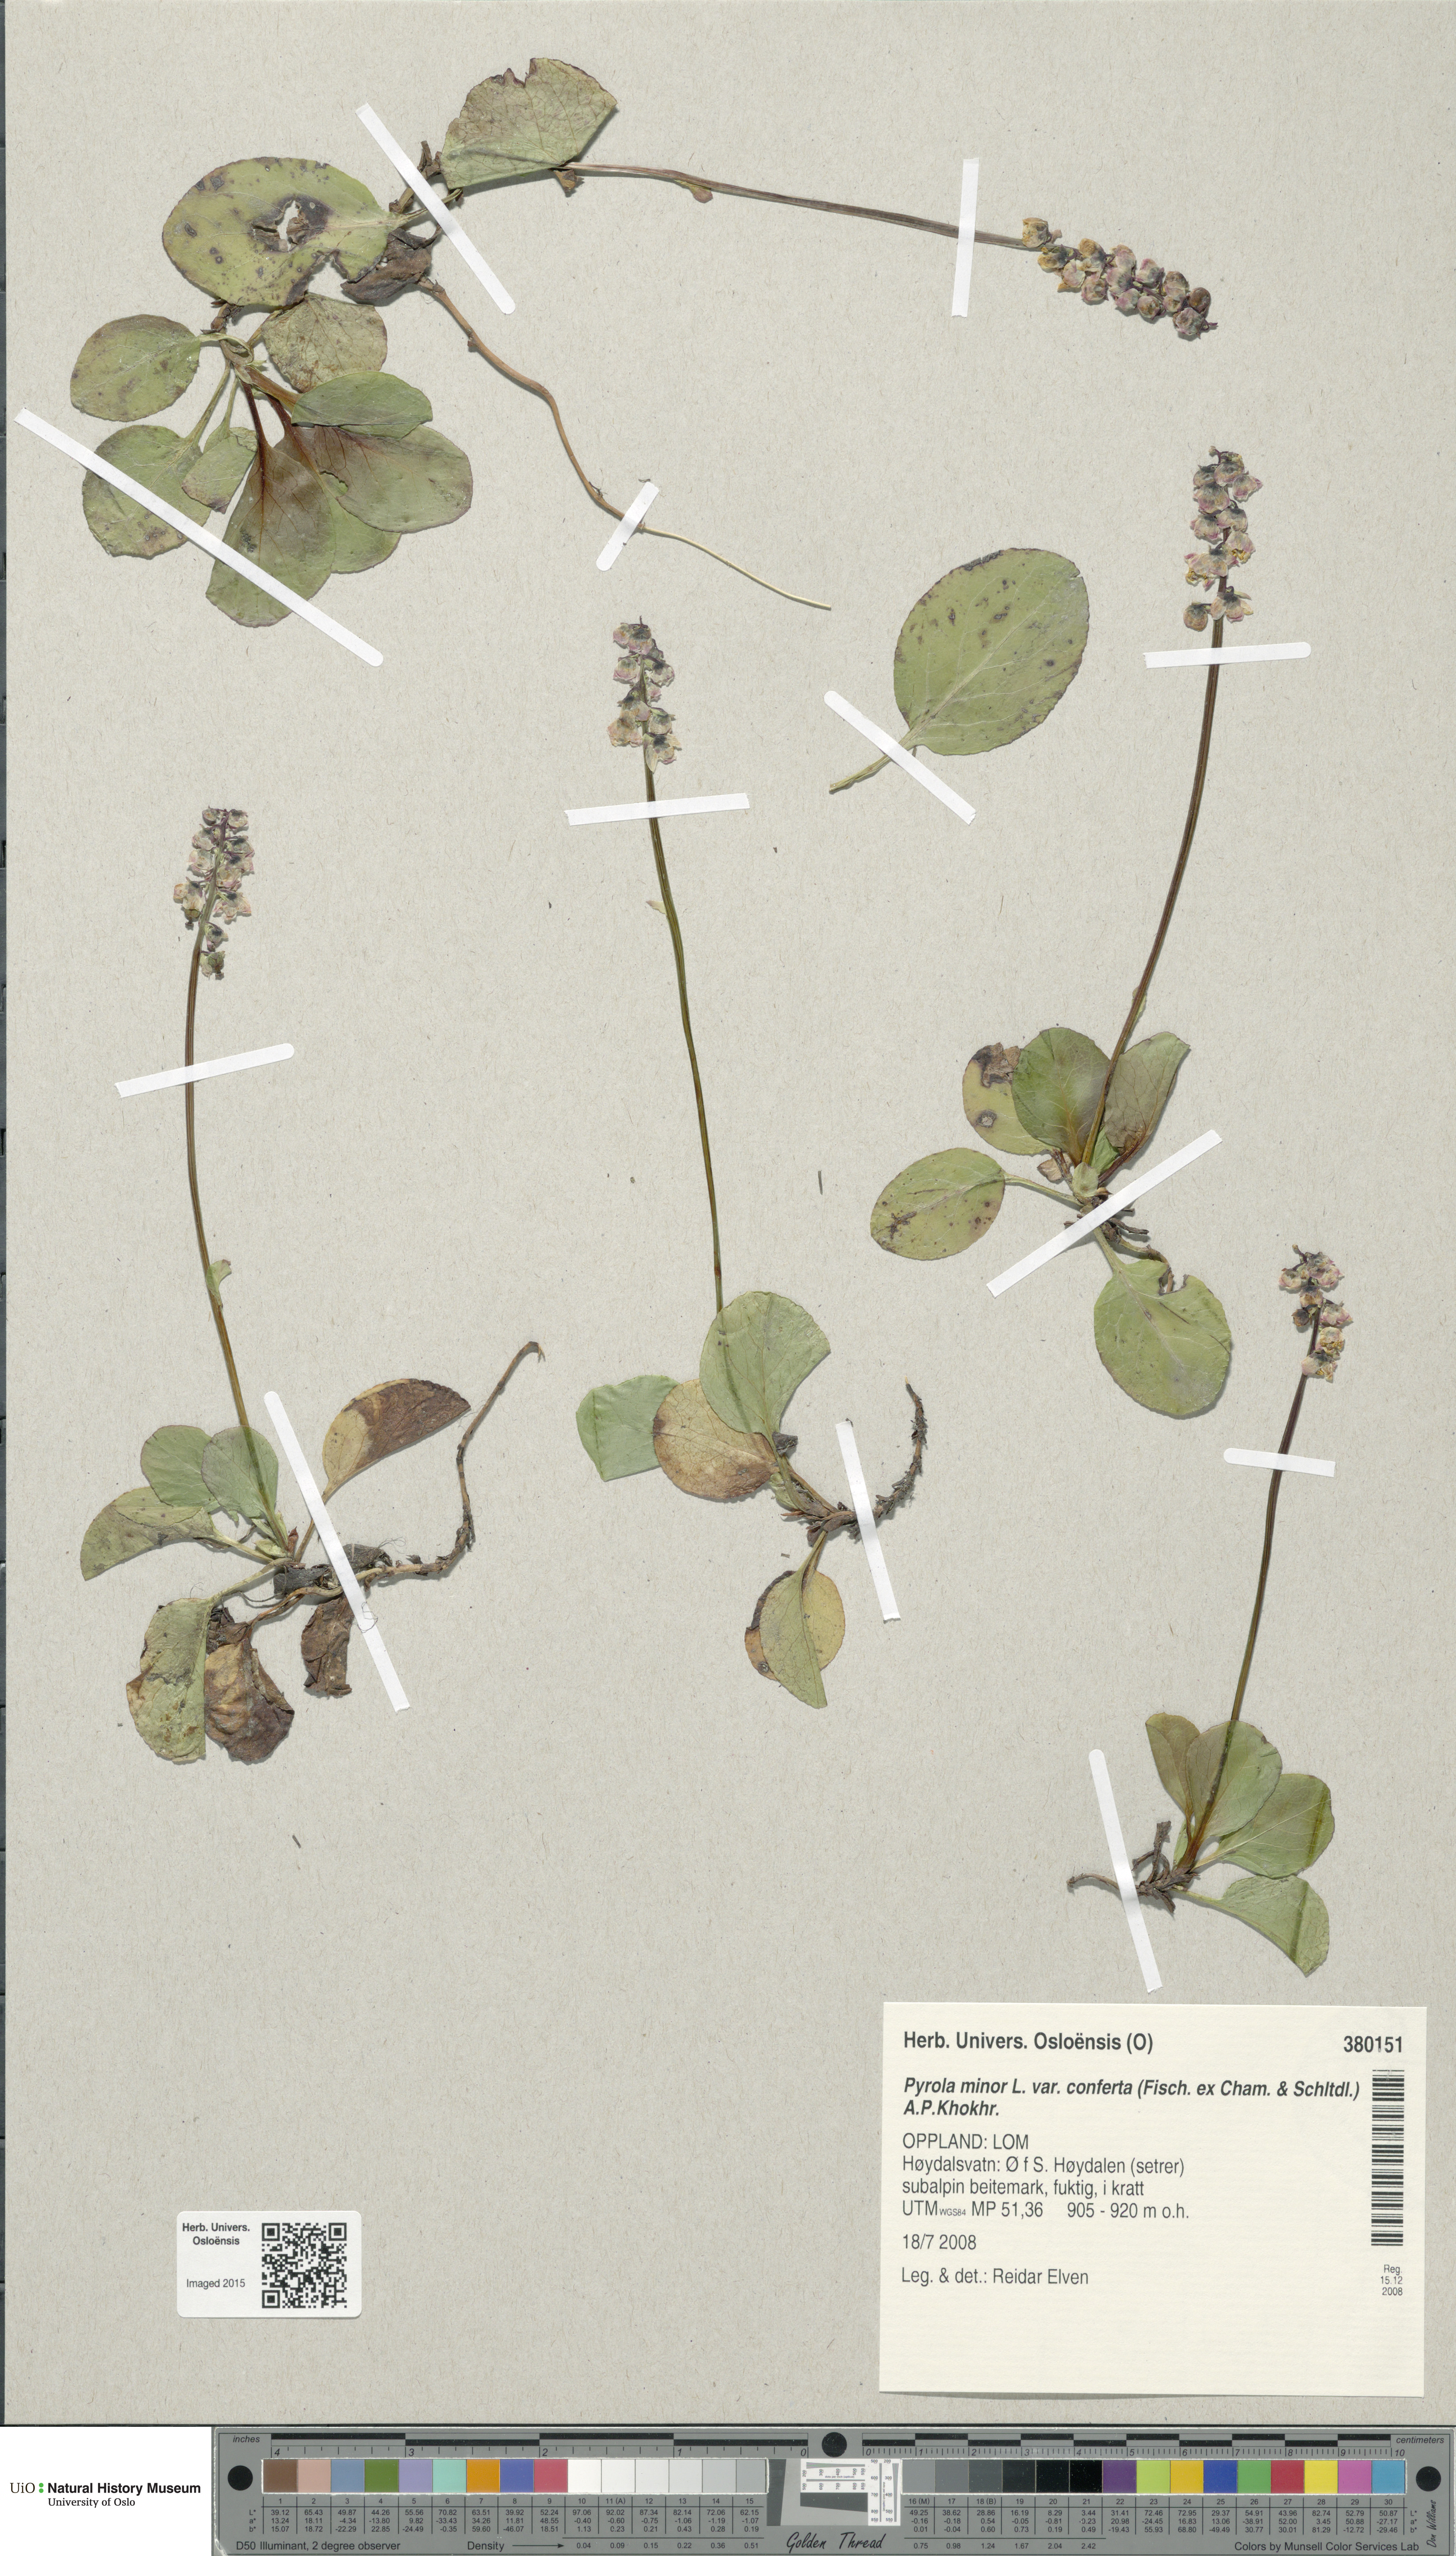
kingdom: Plantae
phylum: Tracheophyta
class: Magnoliopsida
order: Ericales
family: Ericaceae
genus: Pyrola
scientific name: Pyrola minor
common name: Common wintergreen
